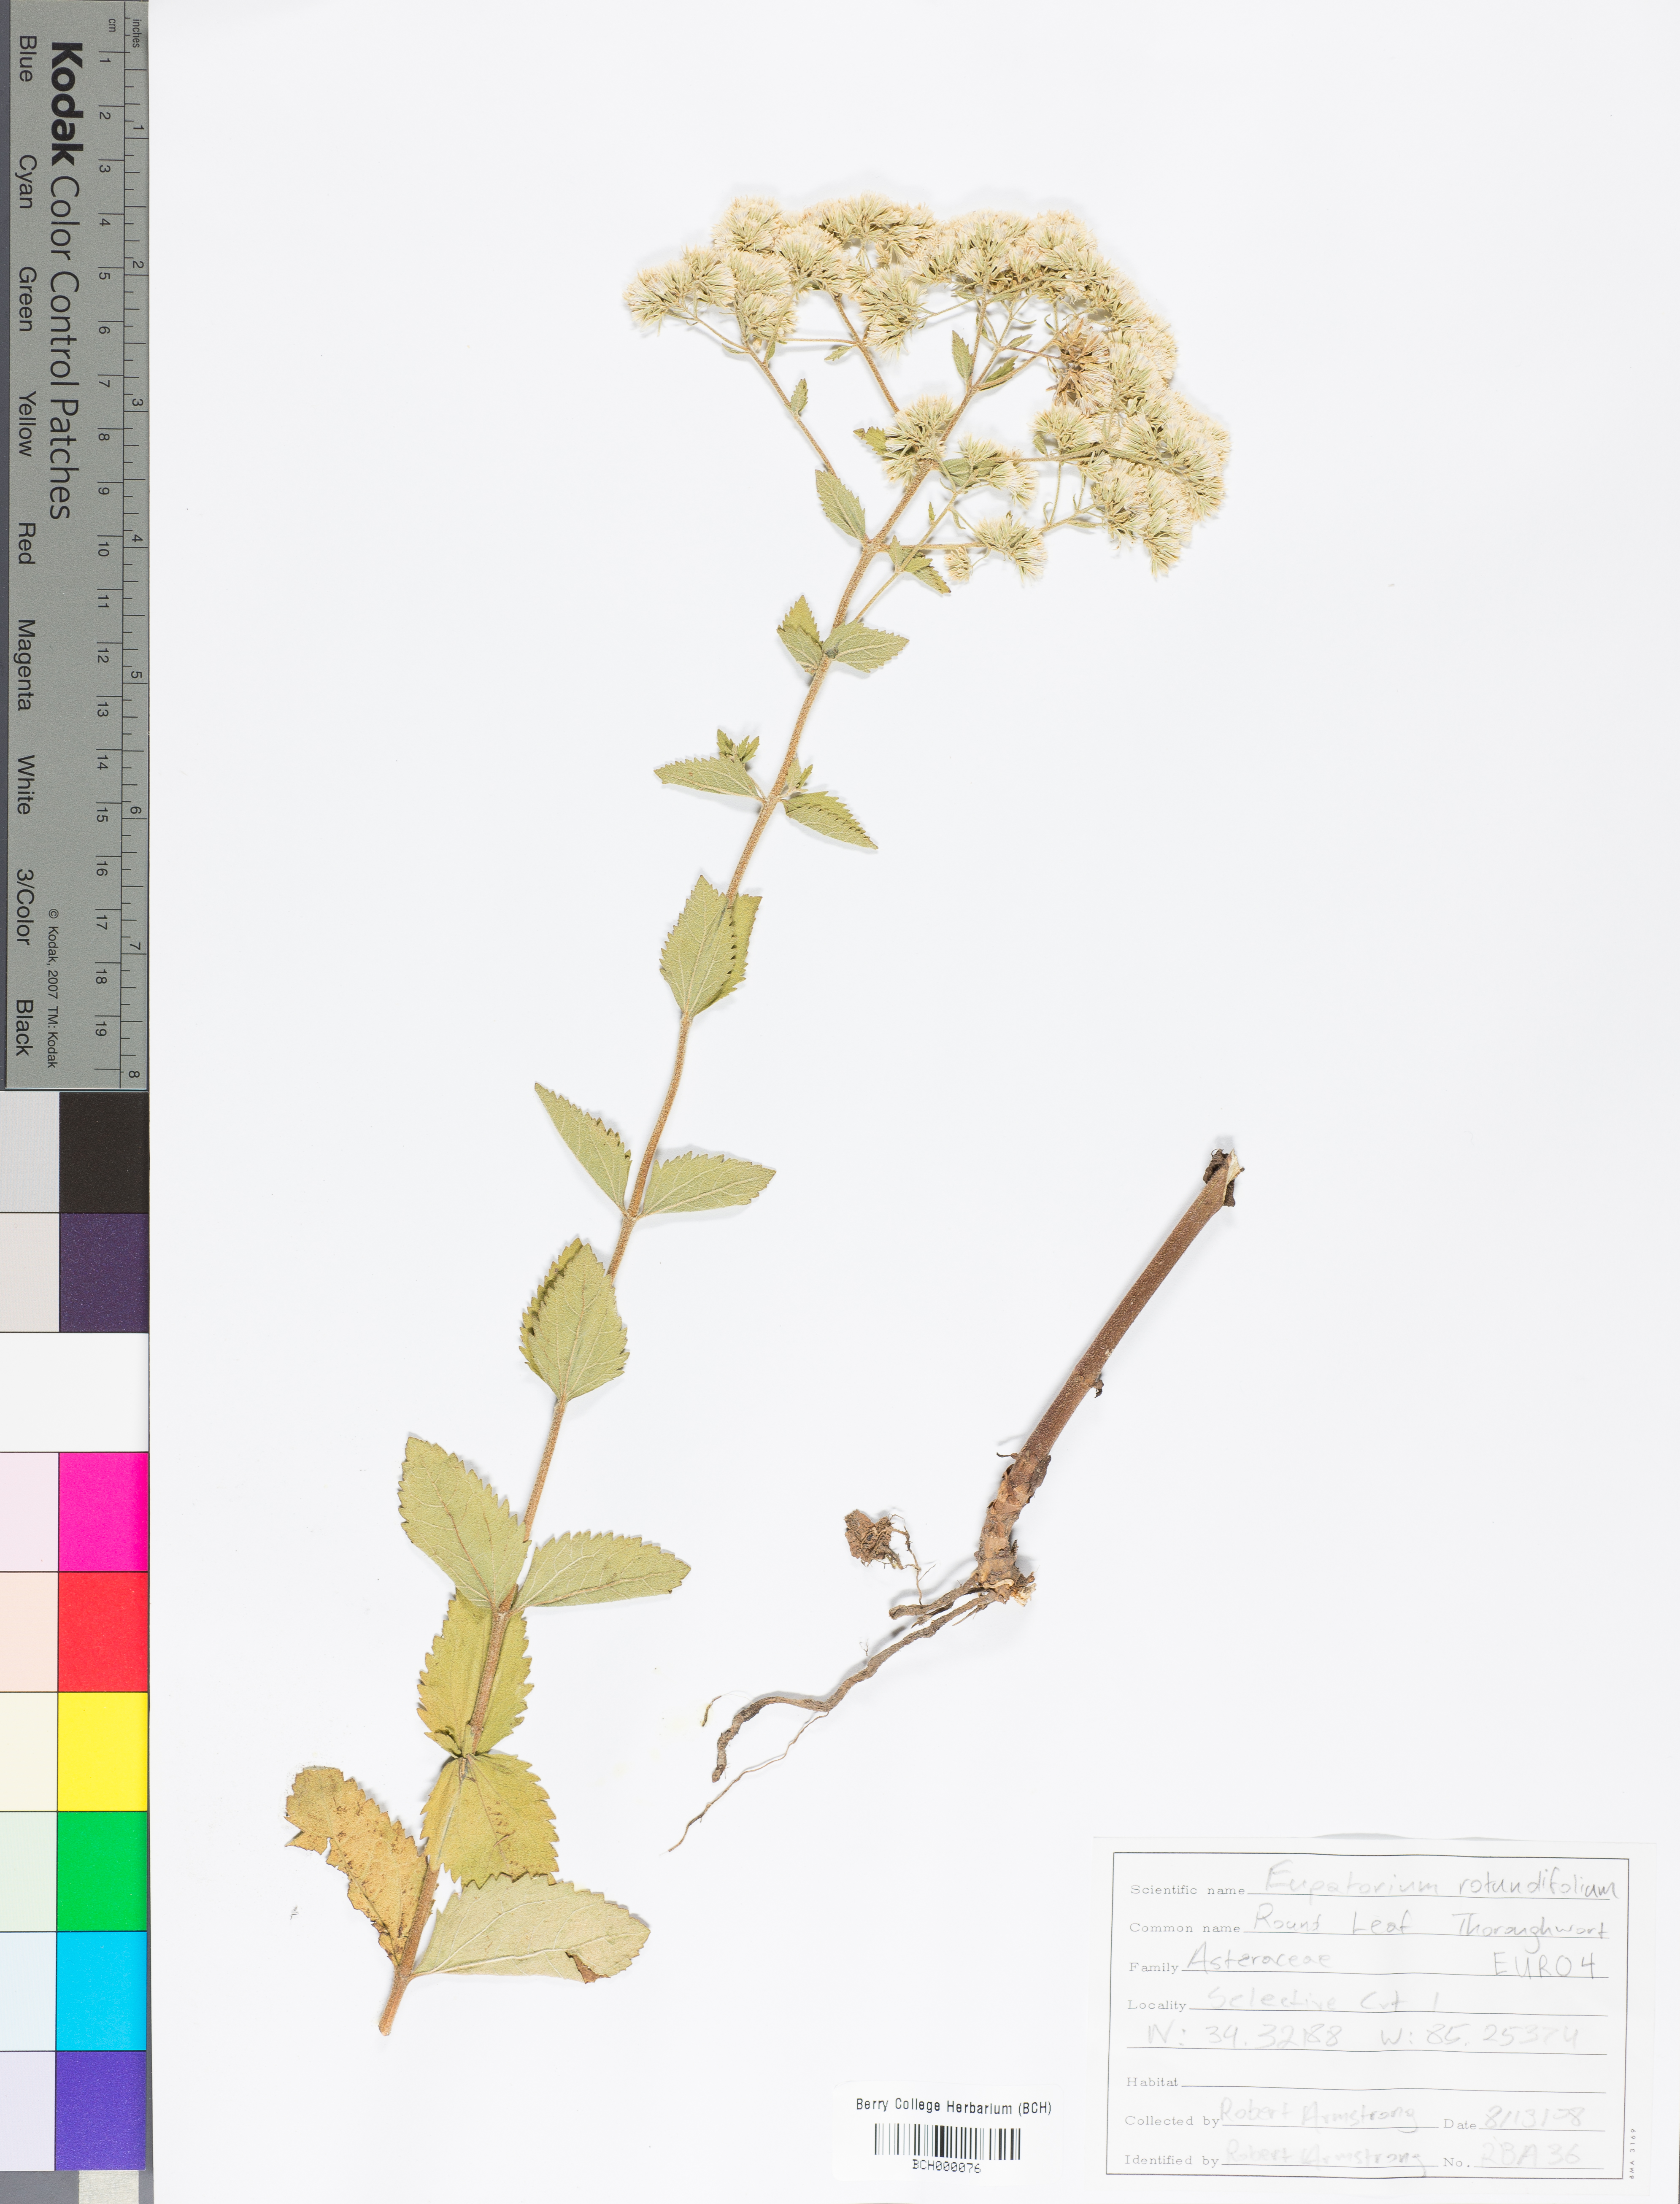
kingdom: Plantae
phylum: Tracheophyta
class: Magnoliopsida
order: Asterales
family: Asteraceae
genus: Eupatorium
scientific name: Eupatorium rotundifolium
